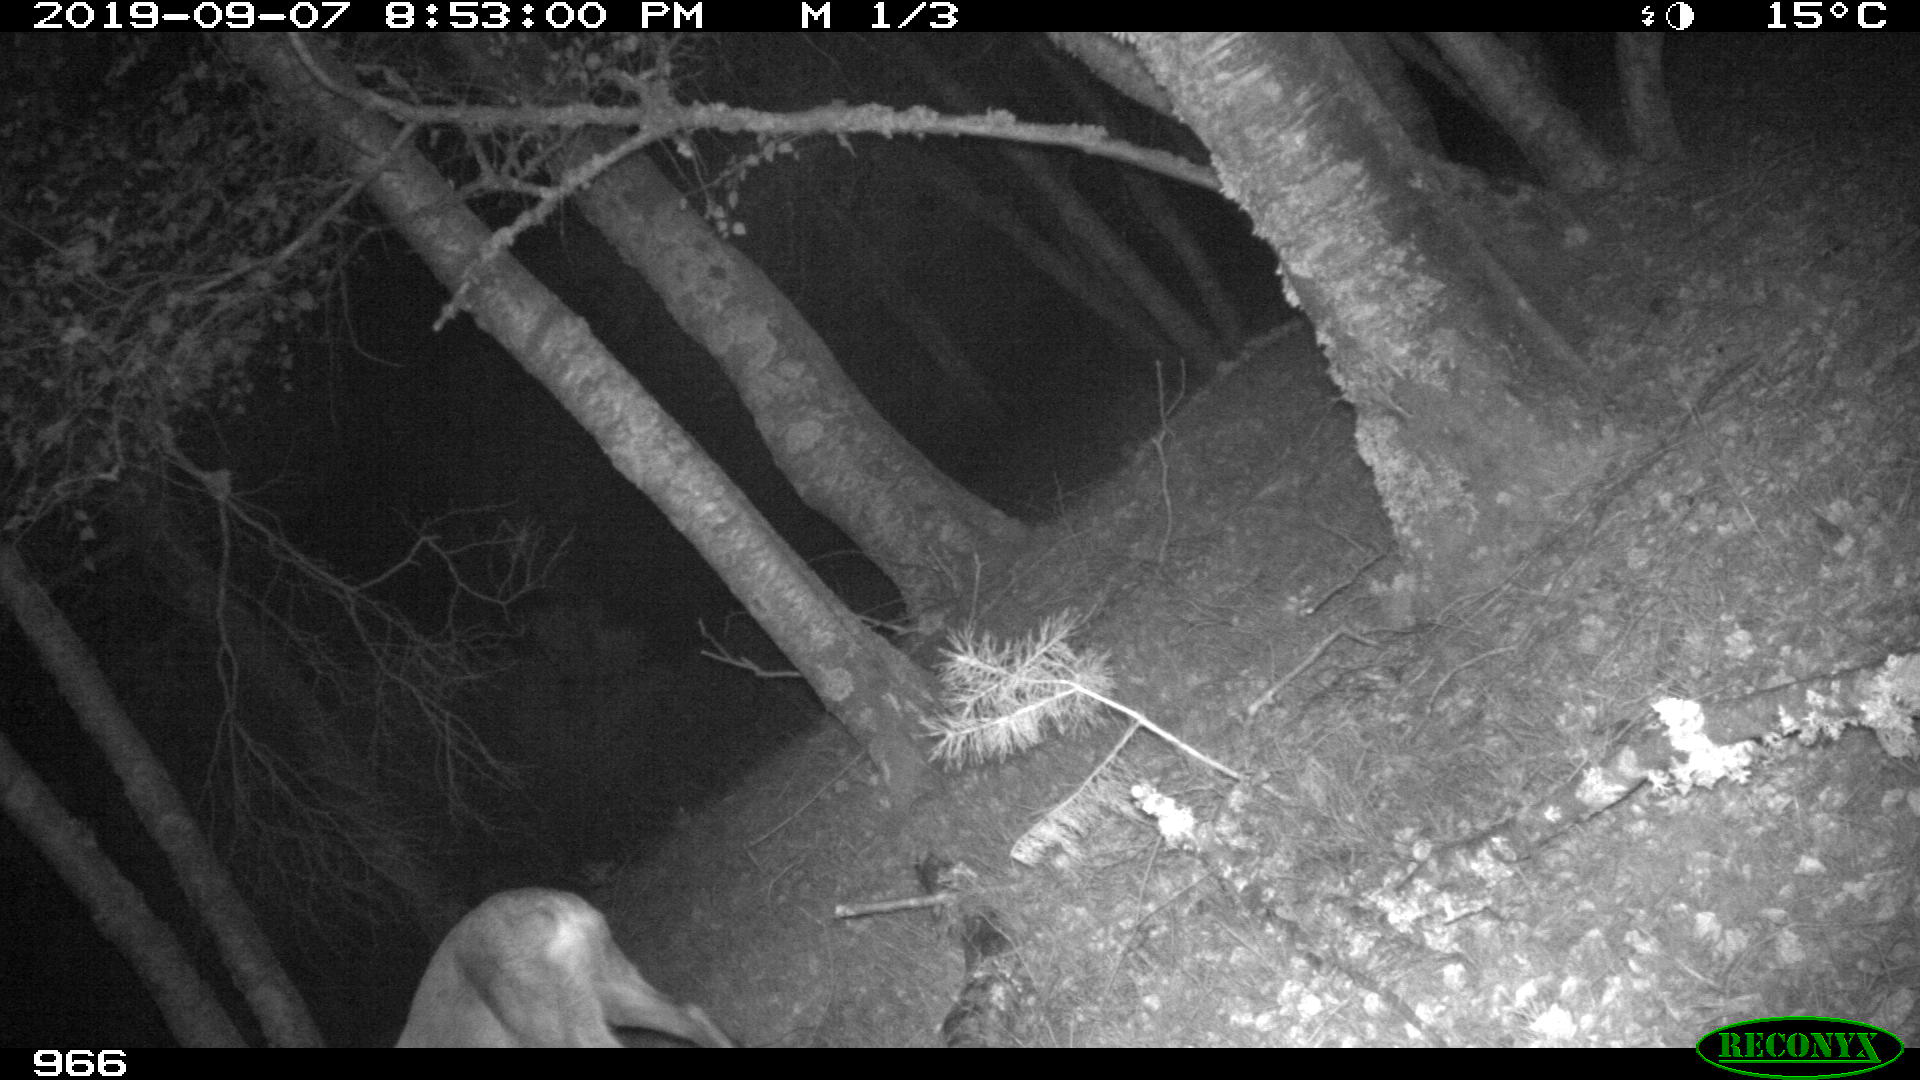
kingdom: Animalia
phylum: Chordata
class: Mammalia
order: Artiodactyla
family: Cervidae
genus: Capreolus
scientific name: Capreolus capreolus
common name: Western roe deer
